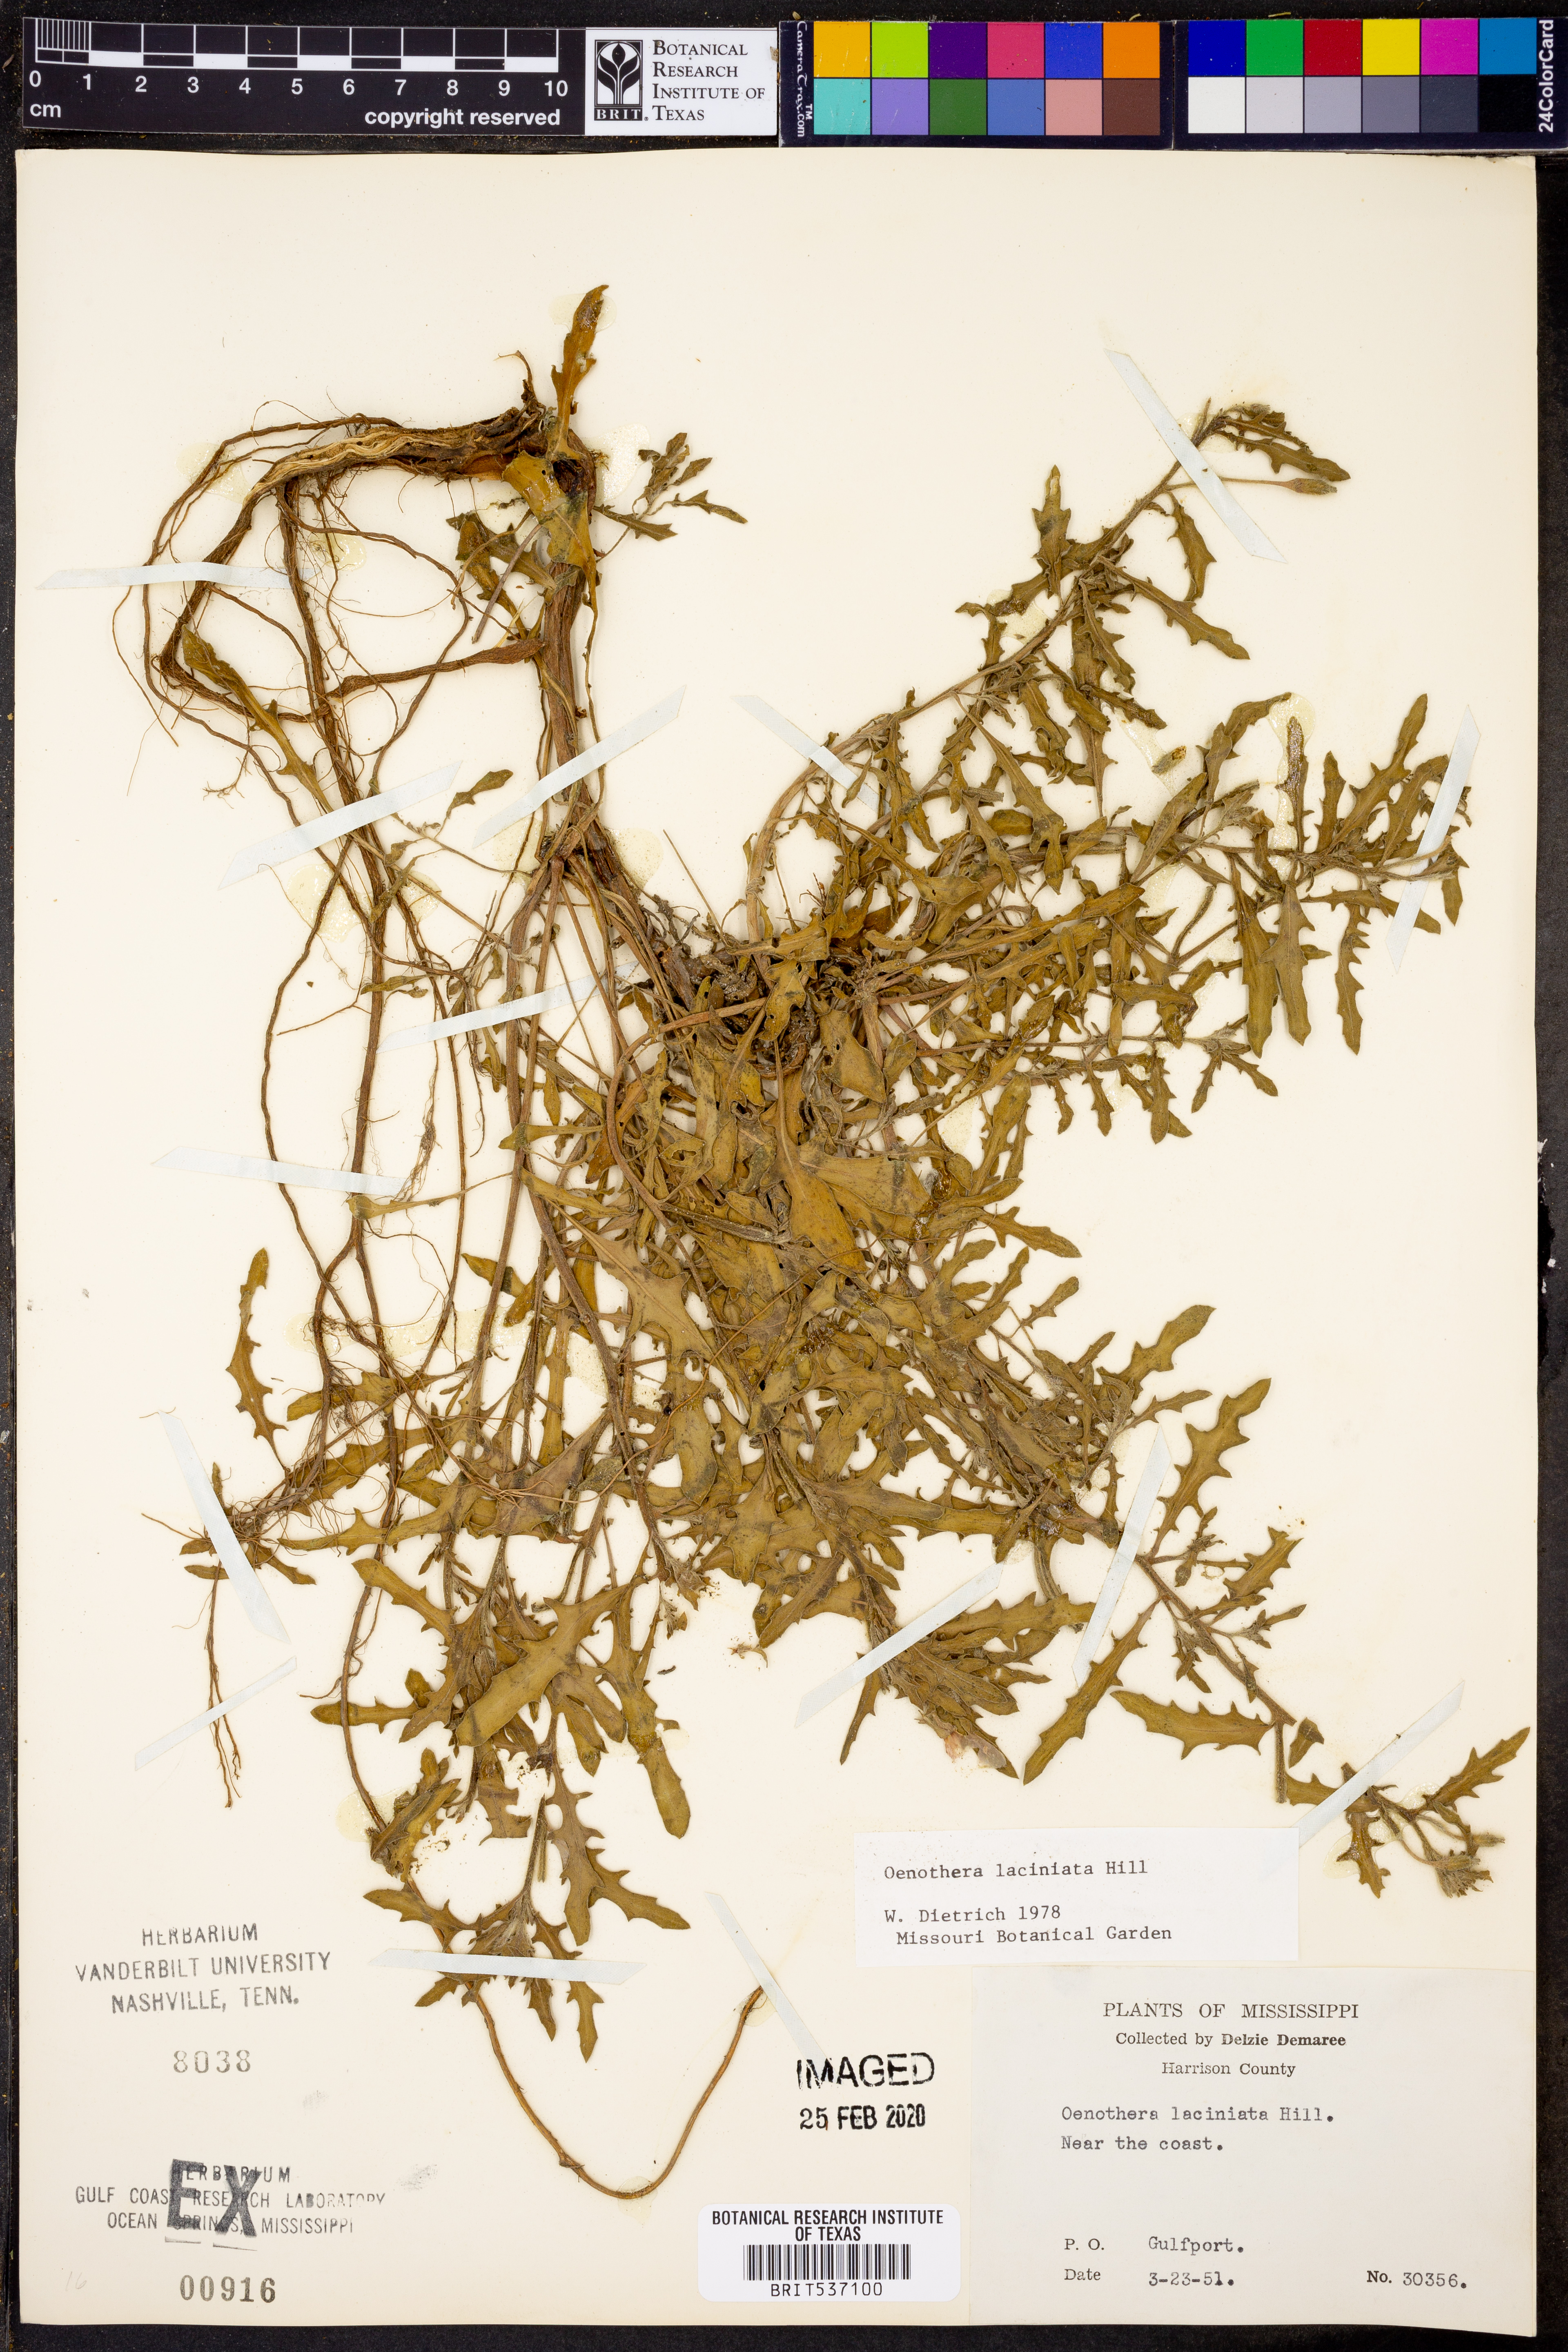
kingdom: Plantae
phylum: Tracheophyta
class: Magnoliopsida
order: Myrtales
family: Onagraceae
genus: Oenothera
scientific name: Oenothera laciniata
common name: Cut-leaved evening-primrose
